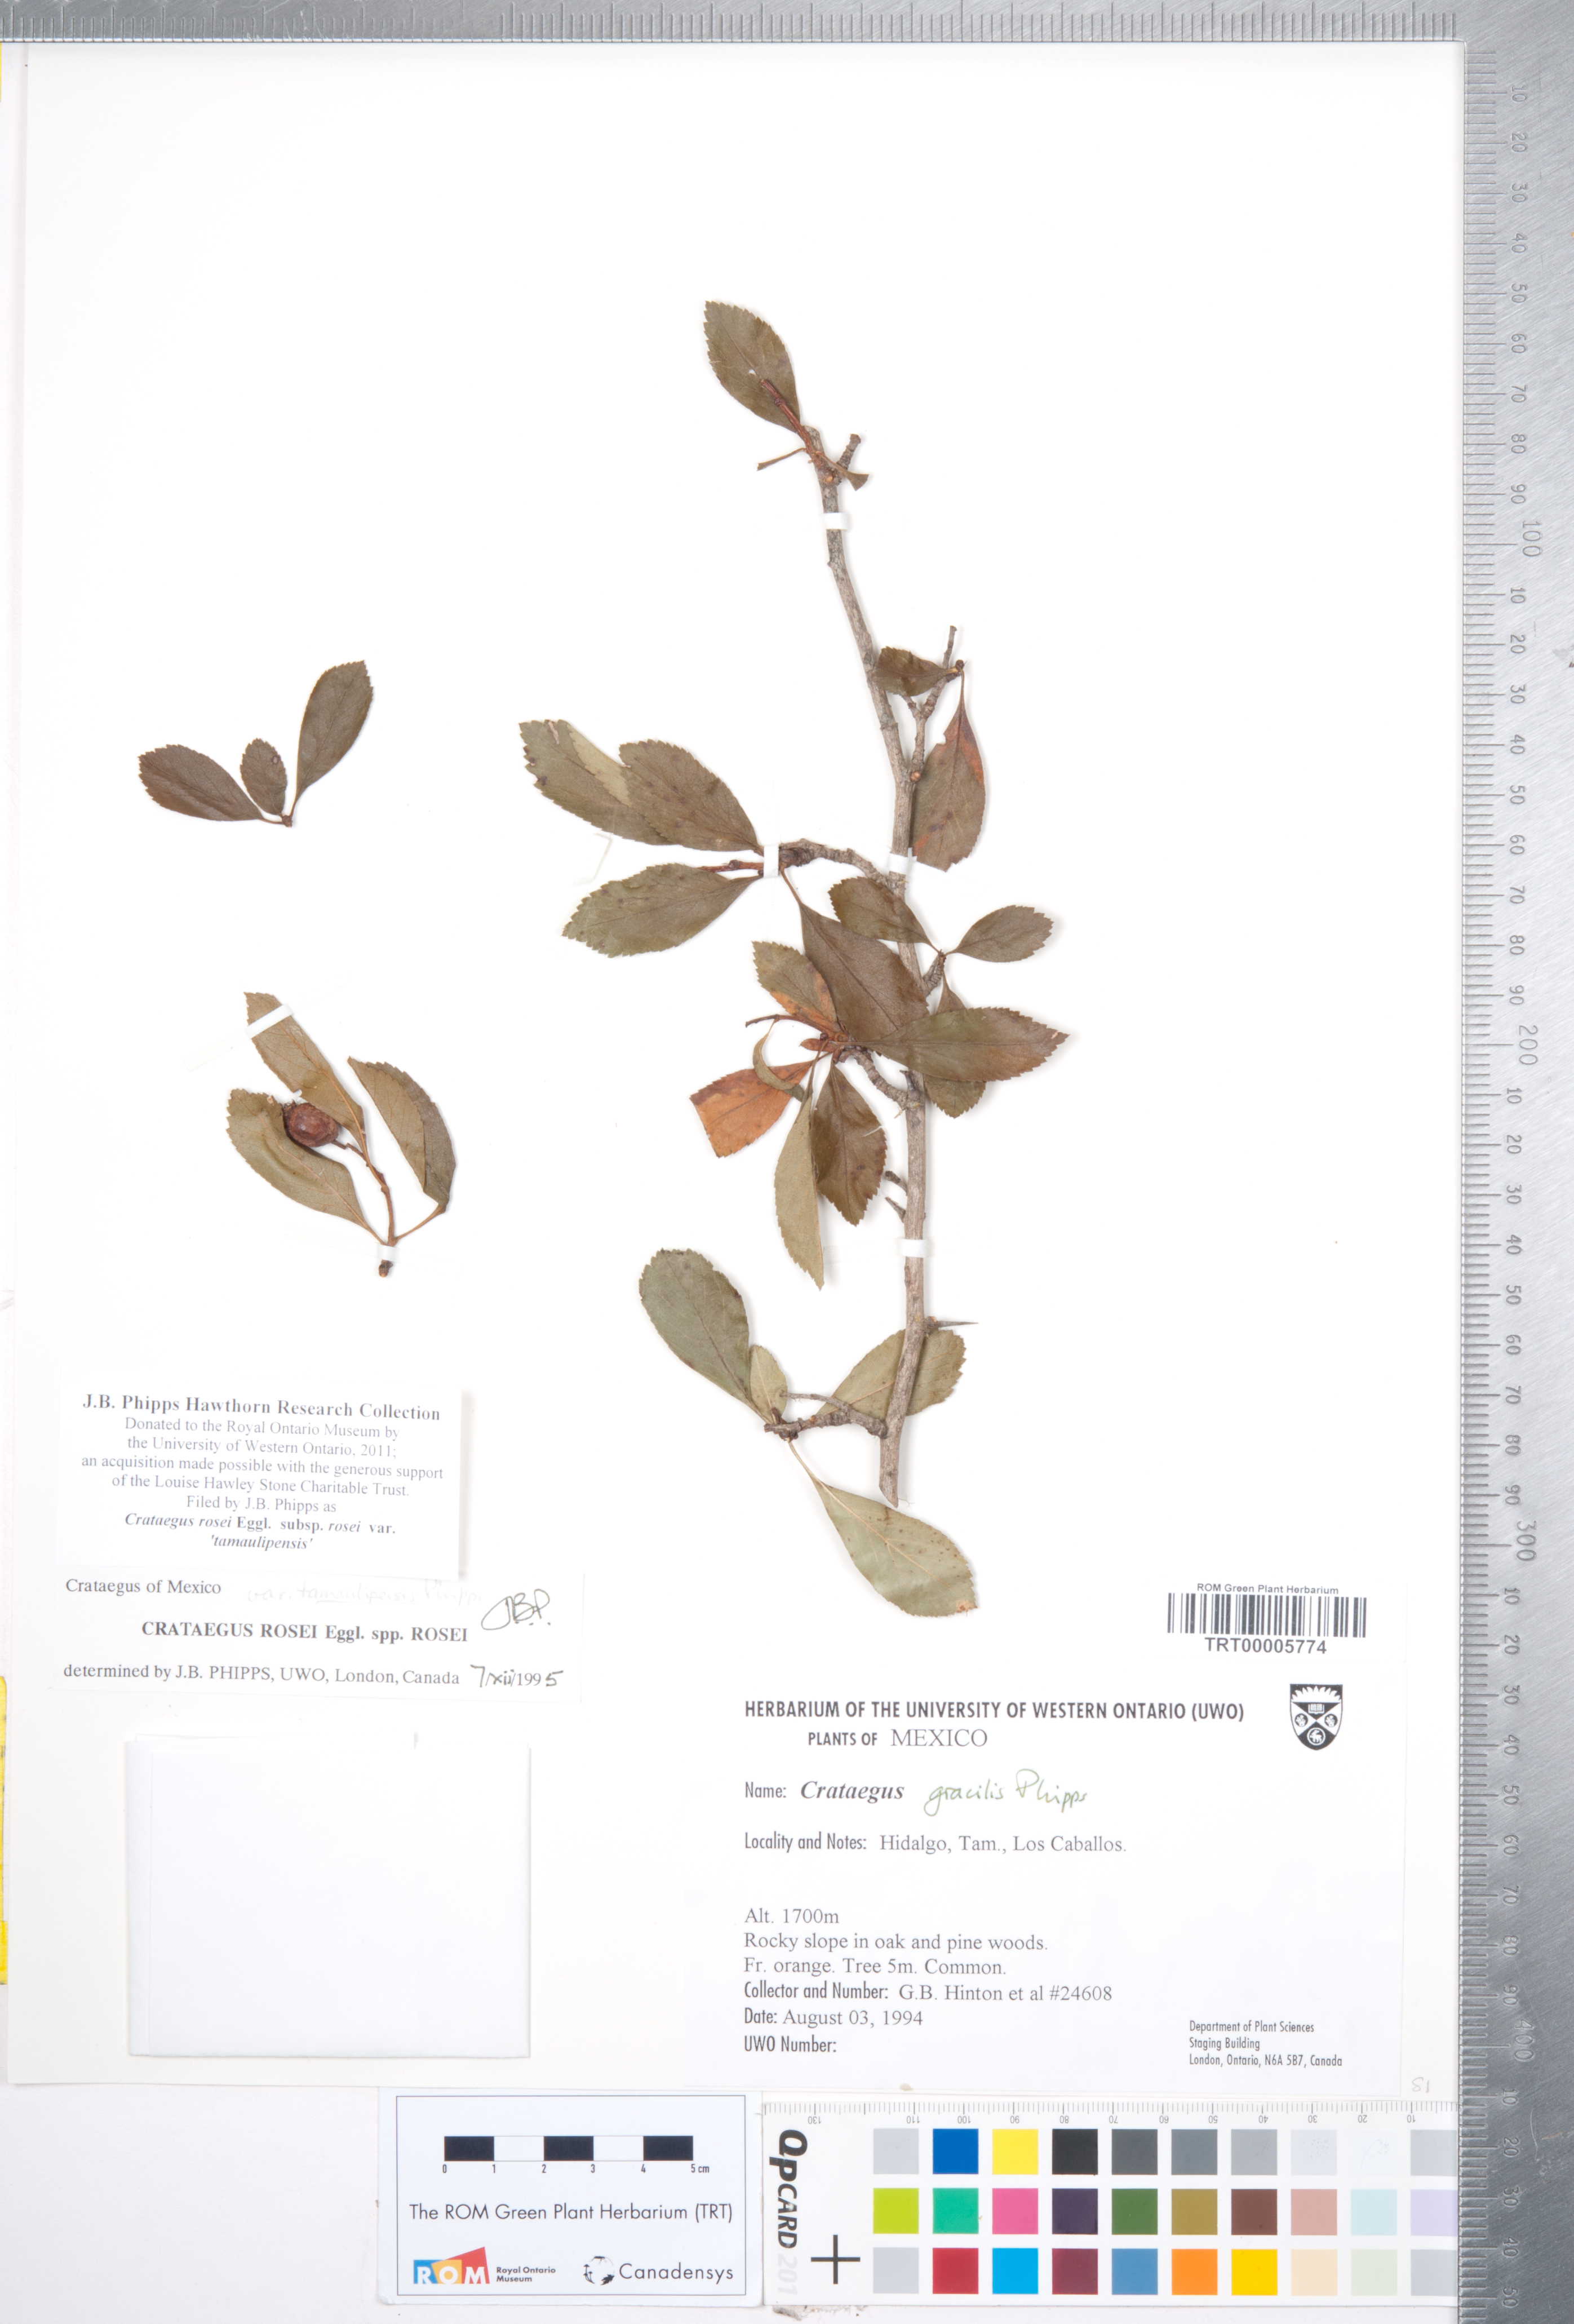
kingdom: Plantae
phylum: Tracheophyta
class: Magnoliopsida
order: Rosales
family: Rosaceae
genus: Crataegus
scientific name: Crataegus rosei
